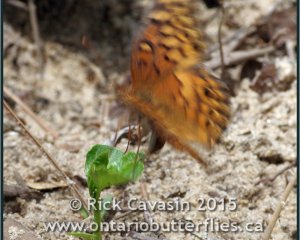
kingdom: Animalia
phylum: Arthropoda
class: Insecta
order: Lepidoptera
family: Nymphalidae
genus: Euptoieta
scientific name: Euptoieta claudia
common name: Variegated Fritillary
